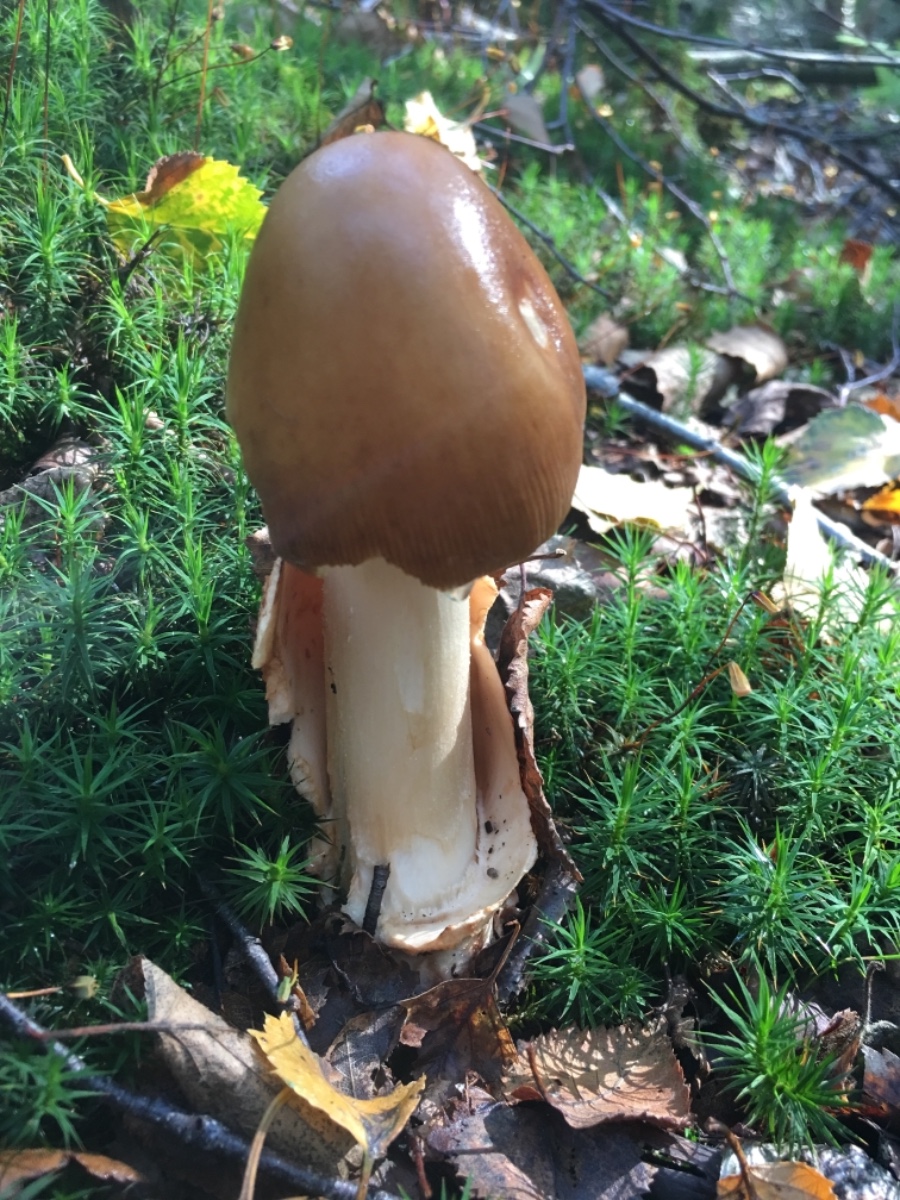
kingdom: Fungi
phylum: Basidiomycota
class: Agaricomycetes
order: Agaricales
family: Amanitaceae
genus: Amanita
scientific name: Amanita fulva
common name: brun kam-fluesvamp
